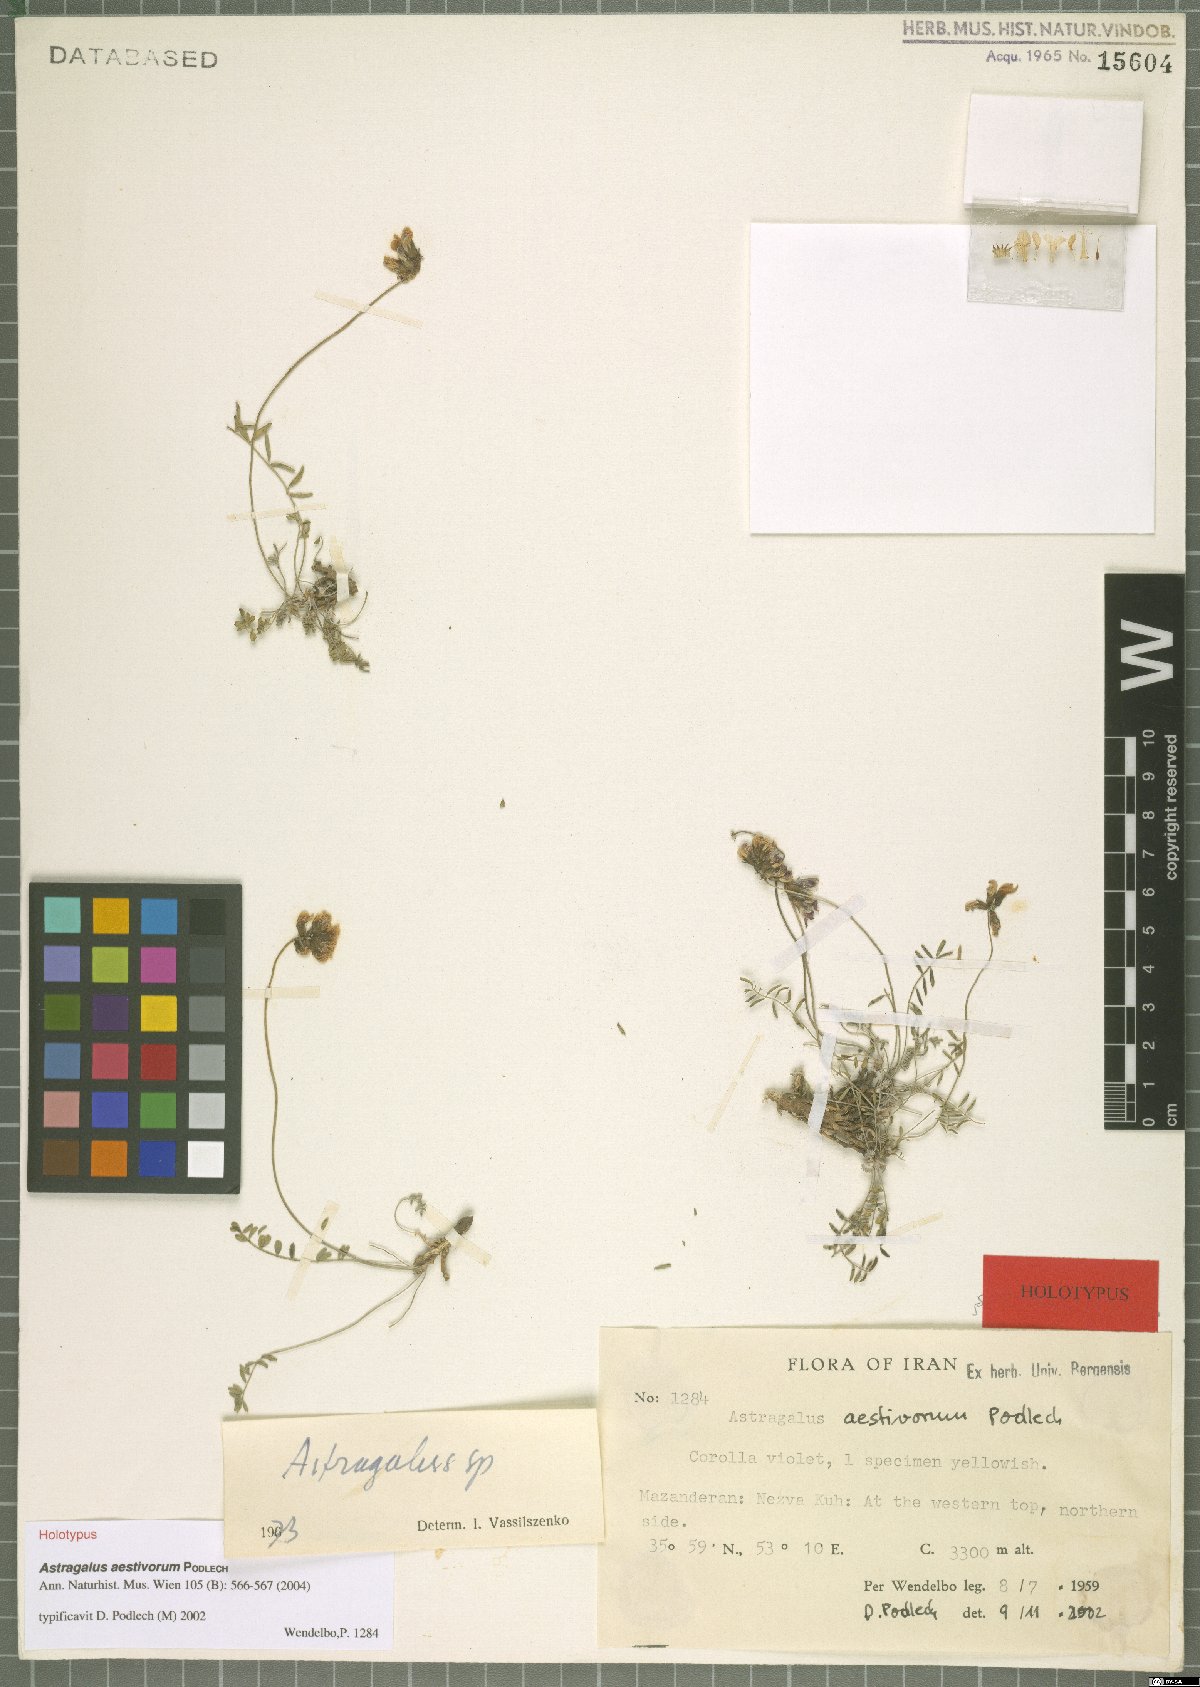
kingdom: Plantae
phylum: Tracheophyta
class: Magnoliopsida
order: Fabales
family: Fabaceae
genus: Astragalus
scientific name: Astragalus aestivorum
